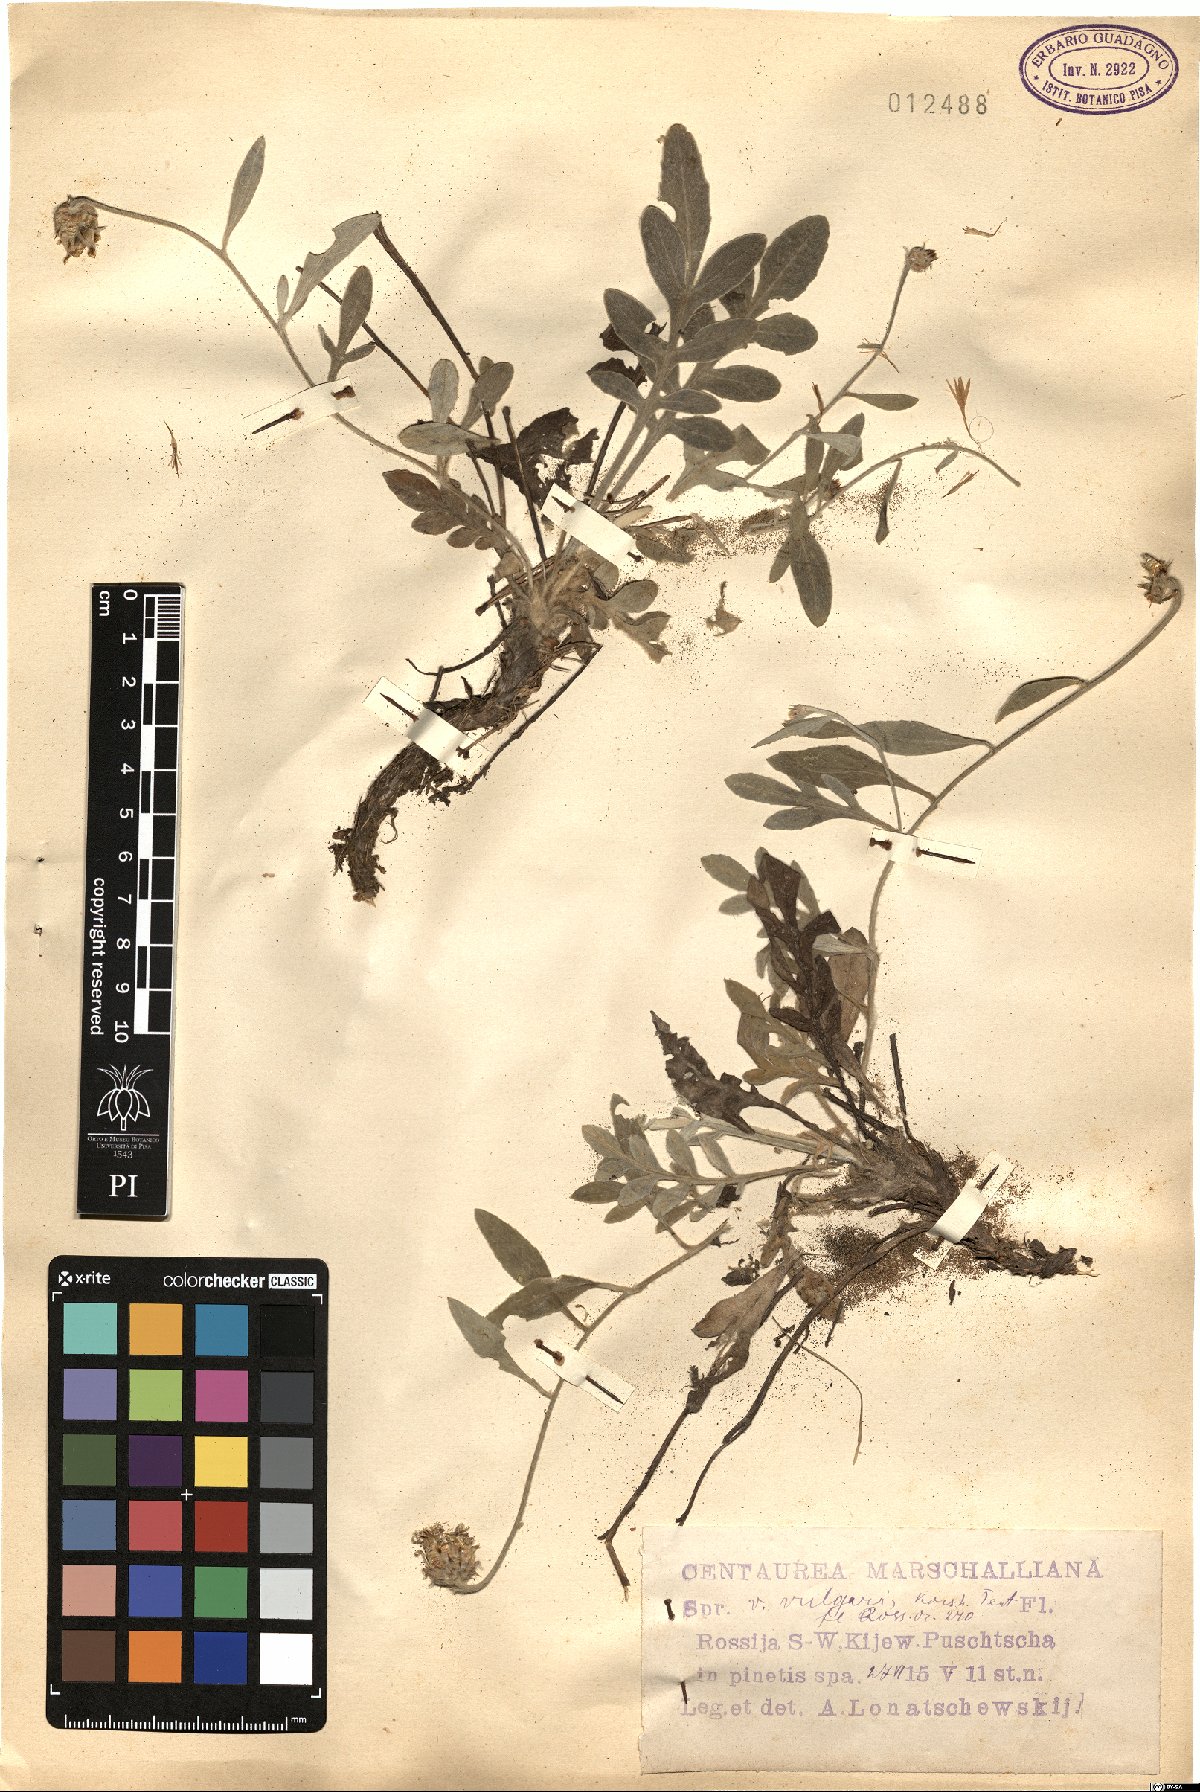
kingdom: Plantae
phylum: Tracheophyta
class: Magnoliopsida
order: Asterales
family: Asteraceae
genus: Psephellus
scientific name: Psephellus marschallianus
